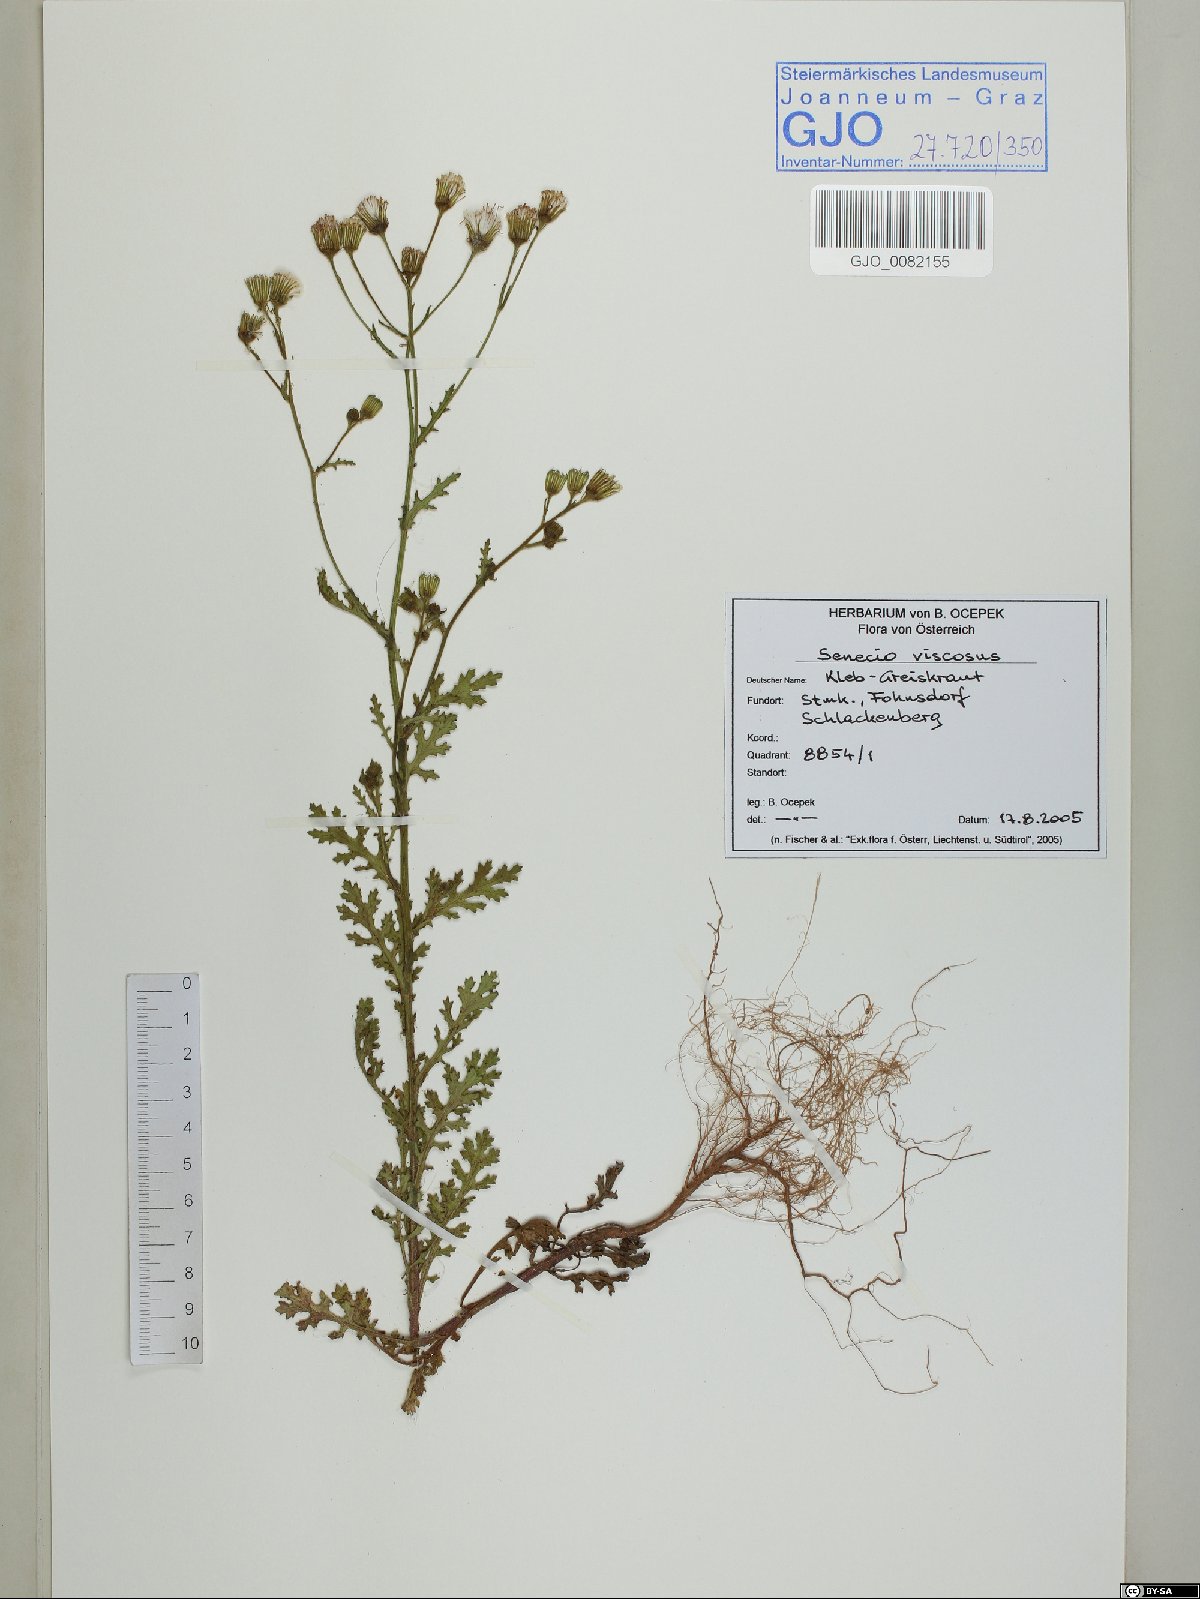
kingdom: Plantae
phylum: Tracheophyta
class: Magnoliopsida
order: Asterales
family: Asteraceae
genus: Senecio
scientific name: Senecio viscosus
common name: Sticky groundsel
